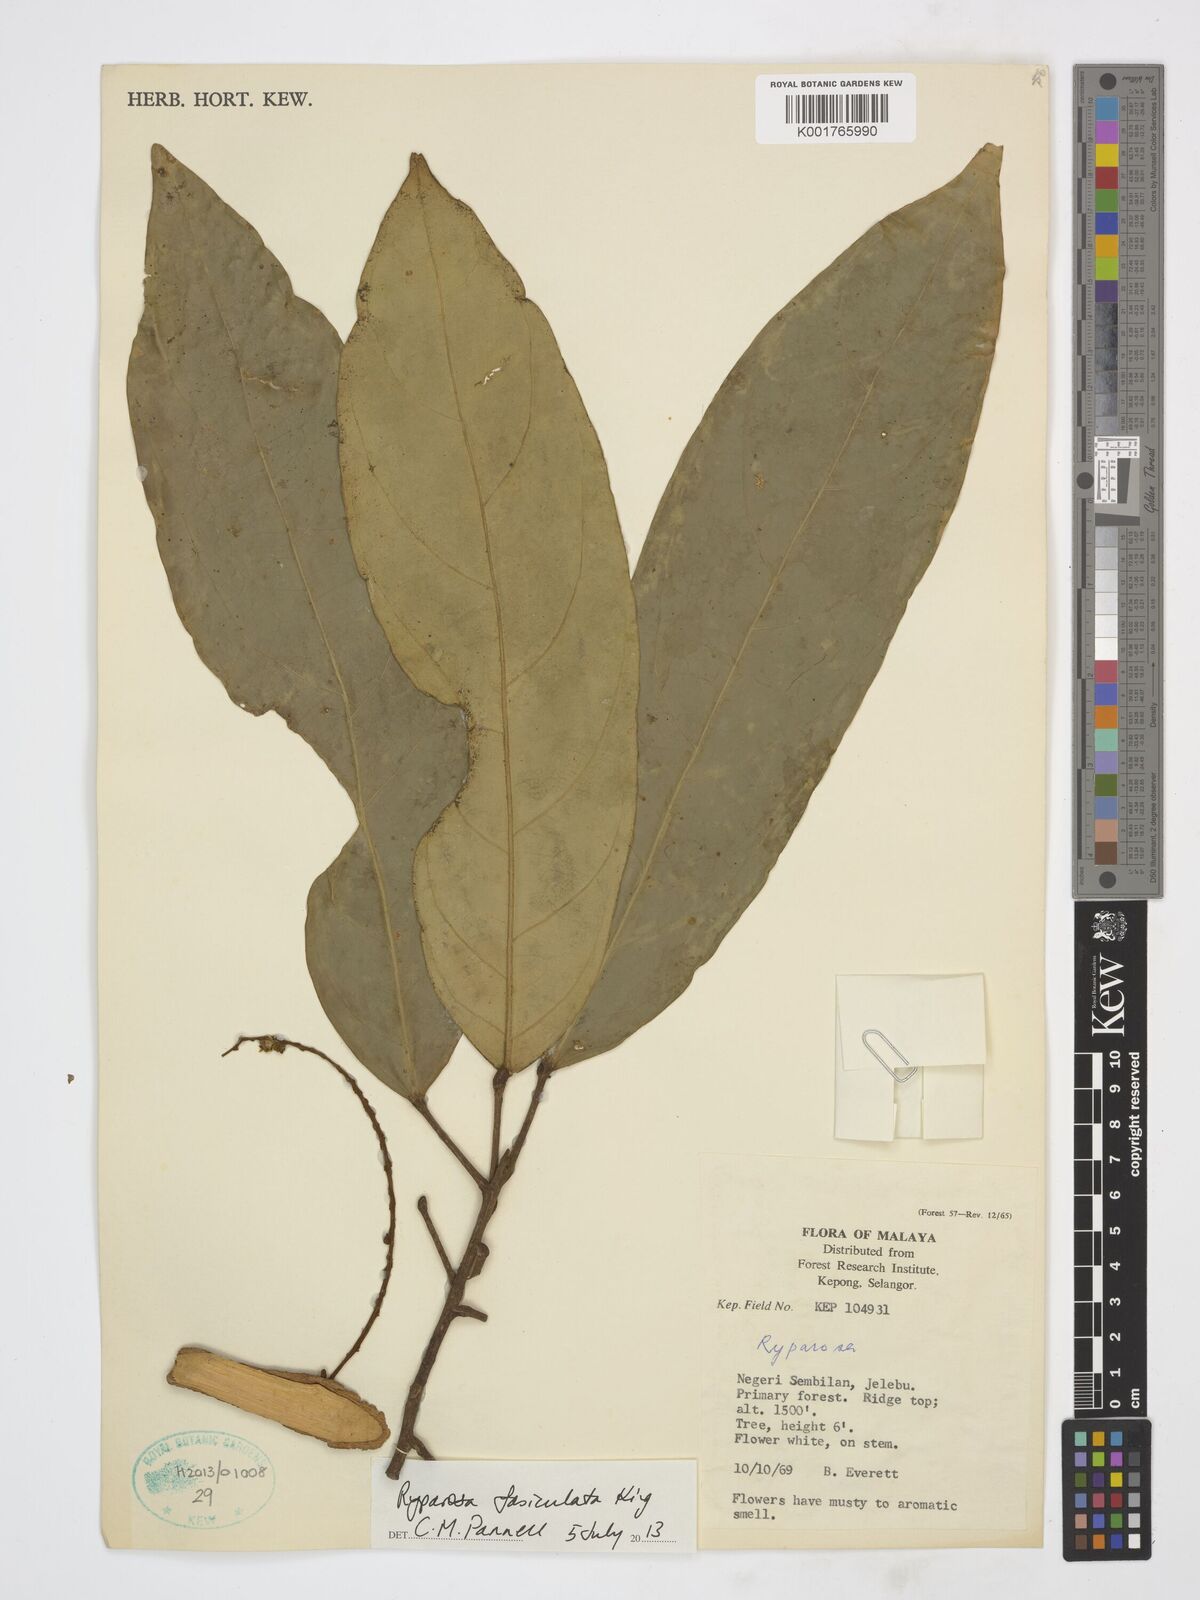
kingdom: Plantae
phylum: Tracheophyta
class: Magnoliopsida
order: Malpighiales
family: Achariaceae
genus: Ryparosa
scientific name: Ryparosa fasciculata
